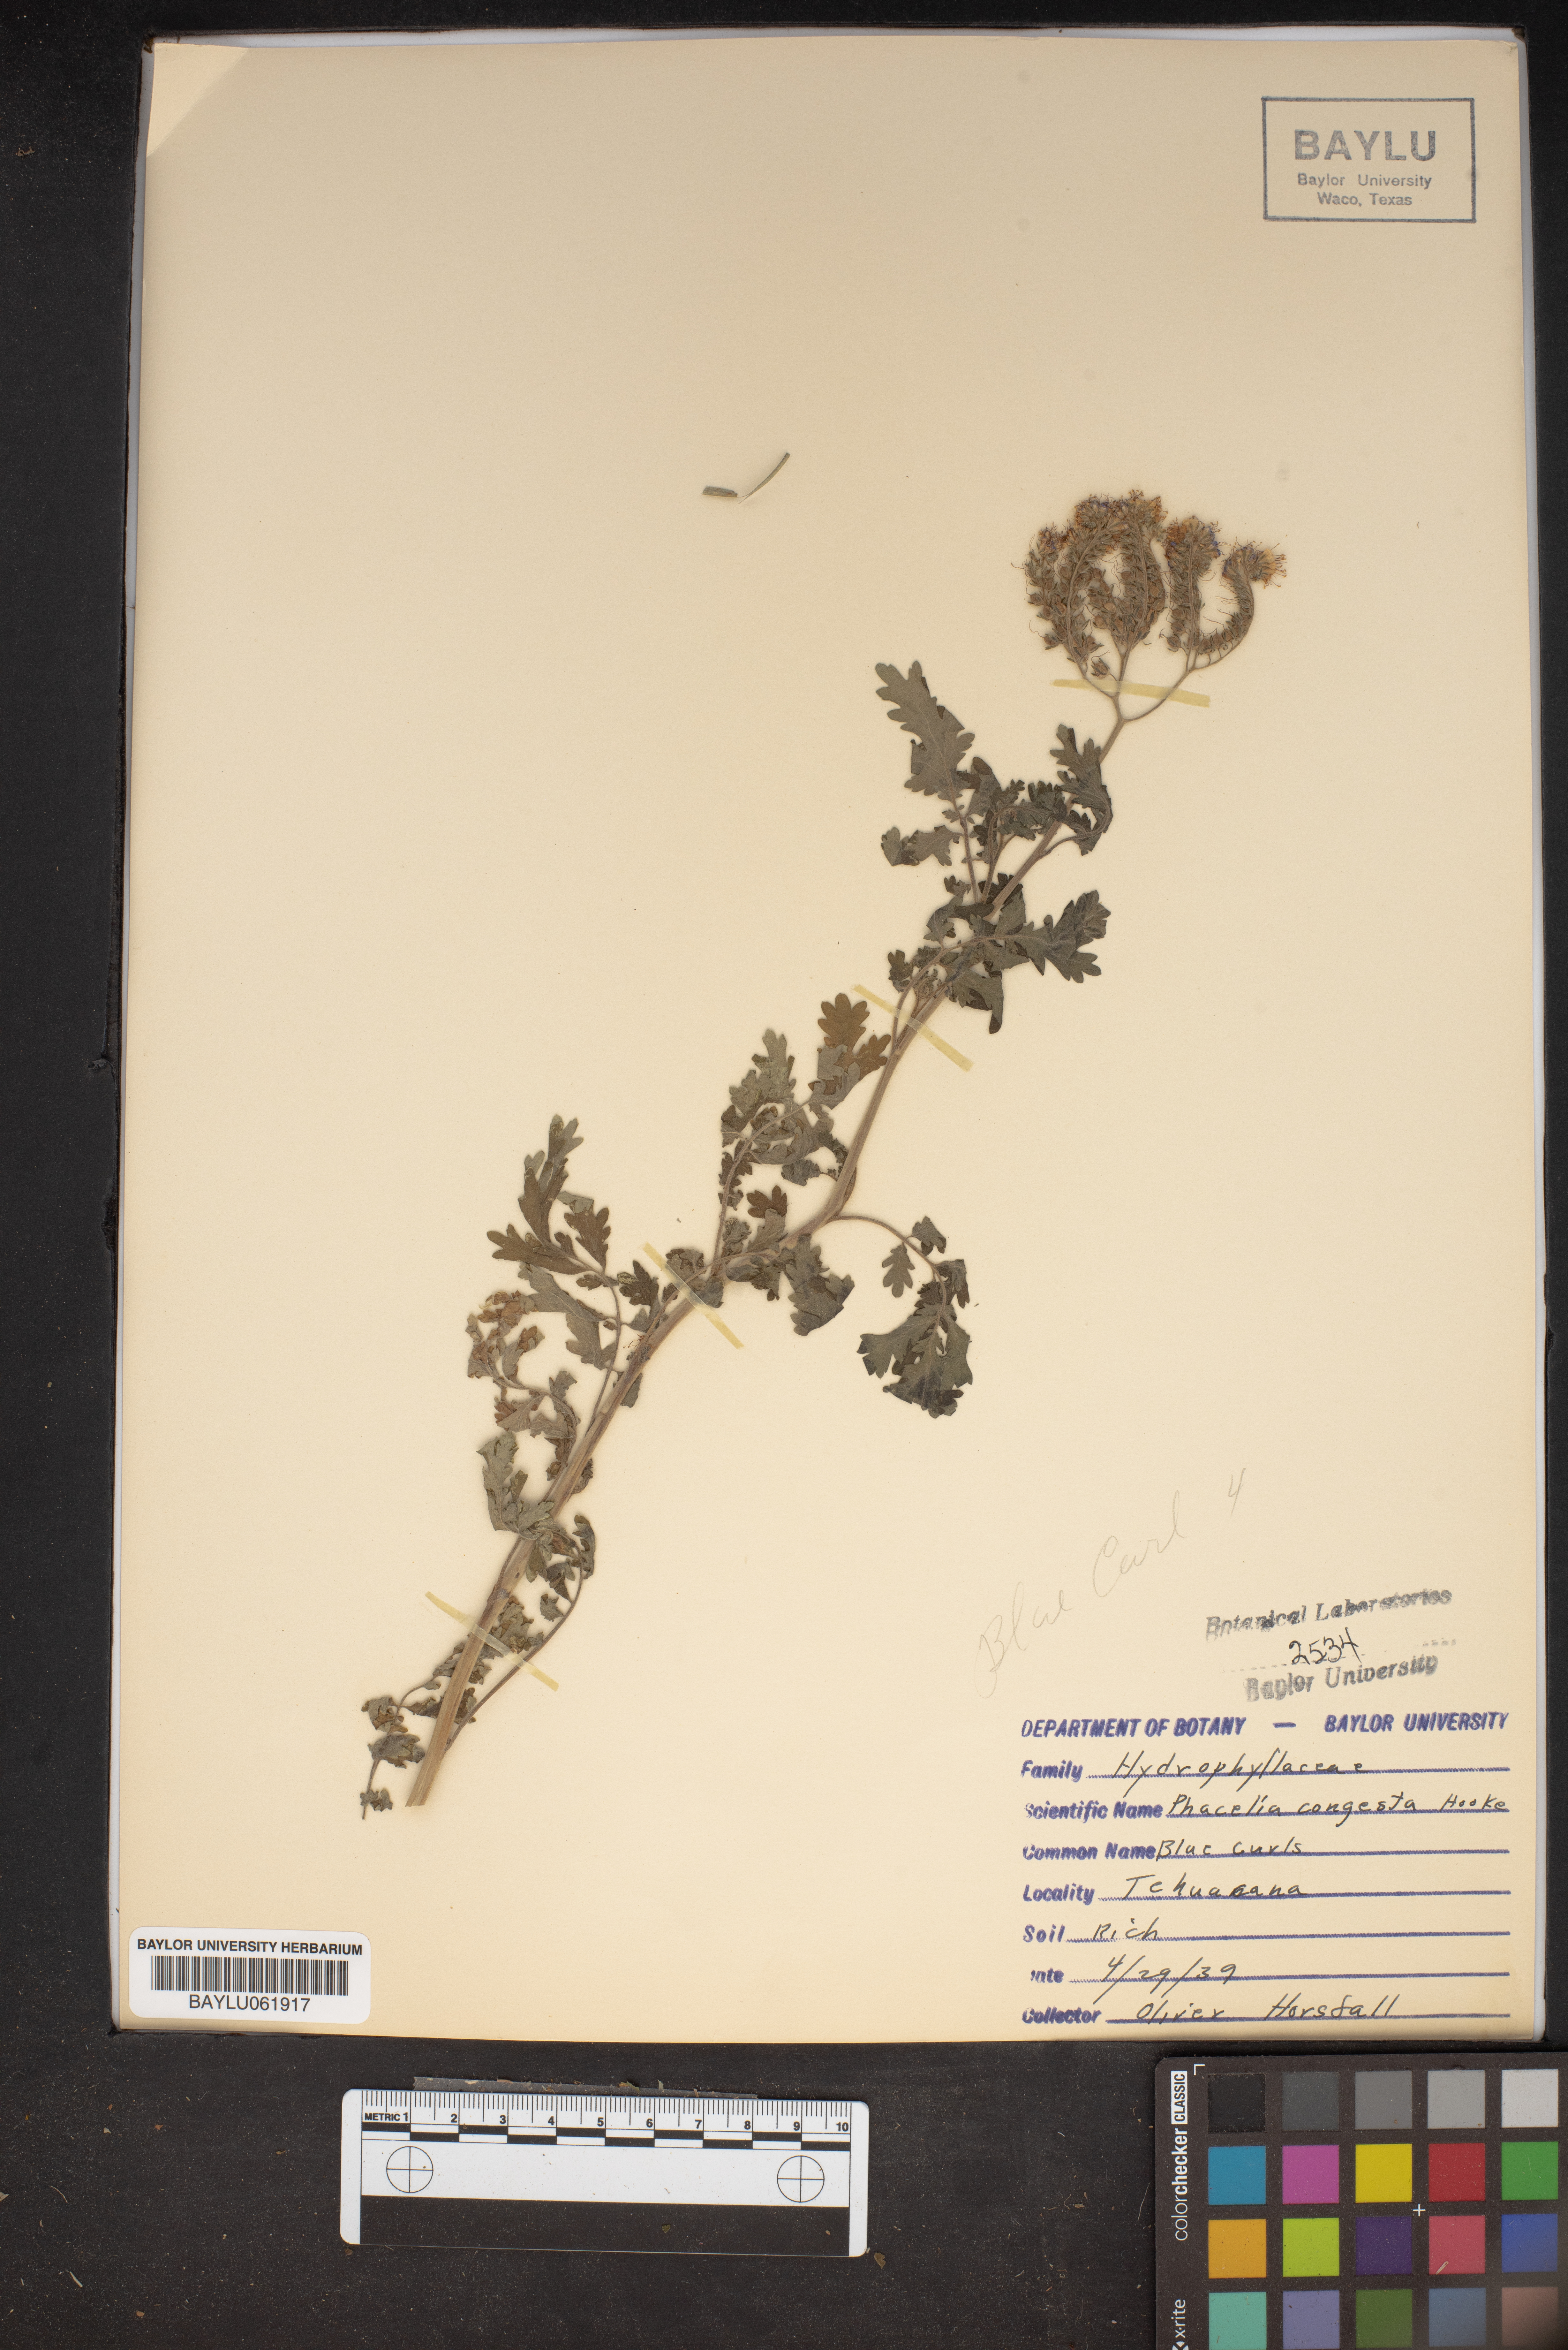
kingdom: Plantae
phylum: Tracheophyta
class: Magnoliopsida
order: Boraginales
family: Hydrophyllaceae
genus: Phacelia
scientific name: Phacelia congesta
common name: Blue curls
